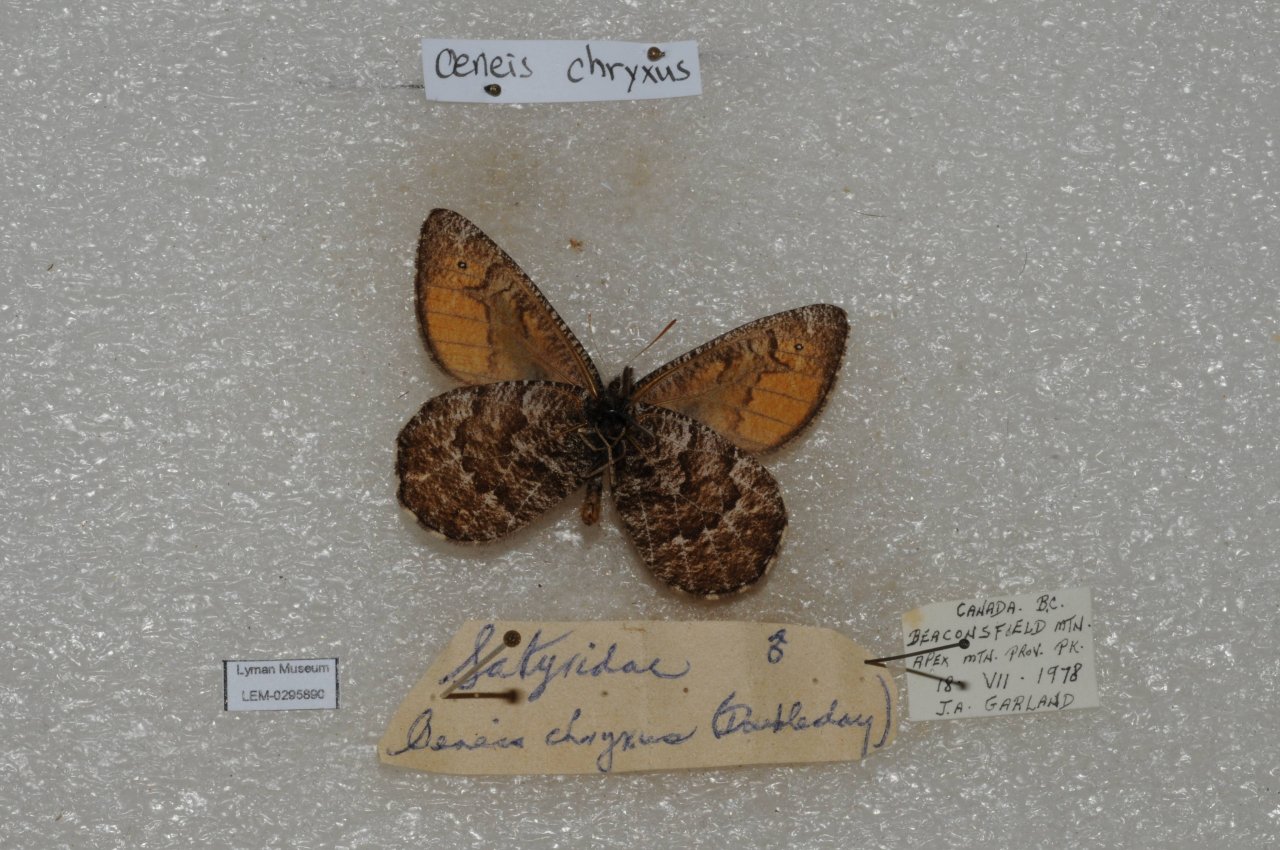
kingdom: Animalia
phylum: Arthropoda
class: Insecta
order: Lepidoptera
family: Nymphalidae
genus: Oeneis
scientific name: Oeneis chryxus
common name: Chryxus Arctic
